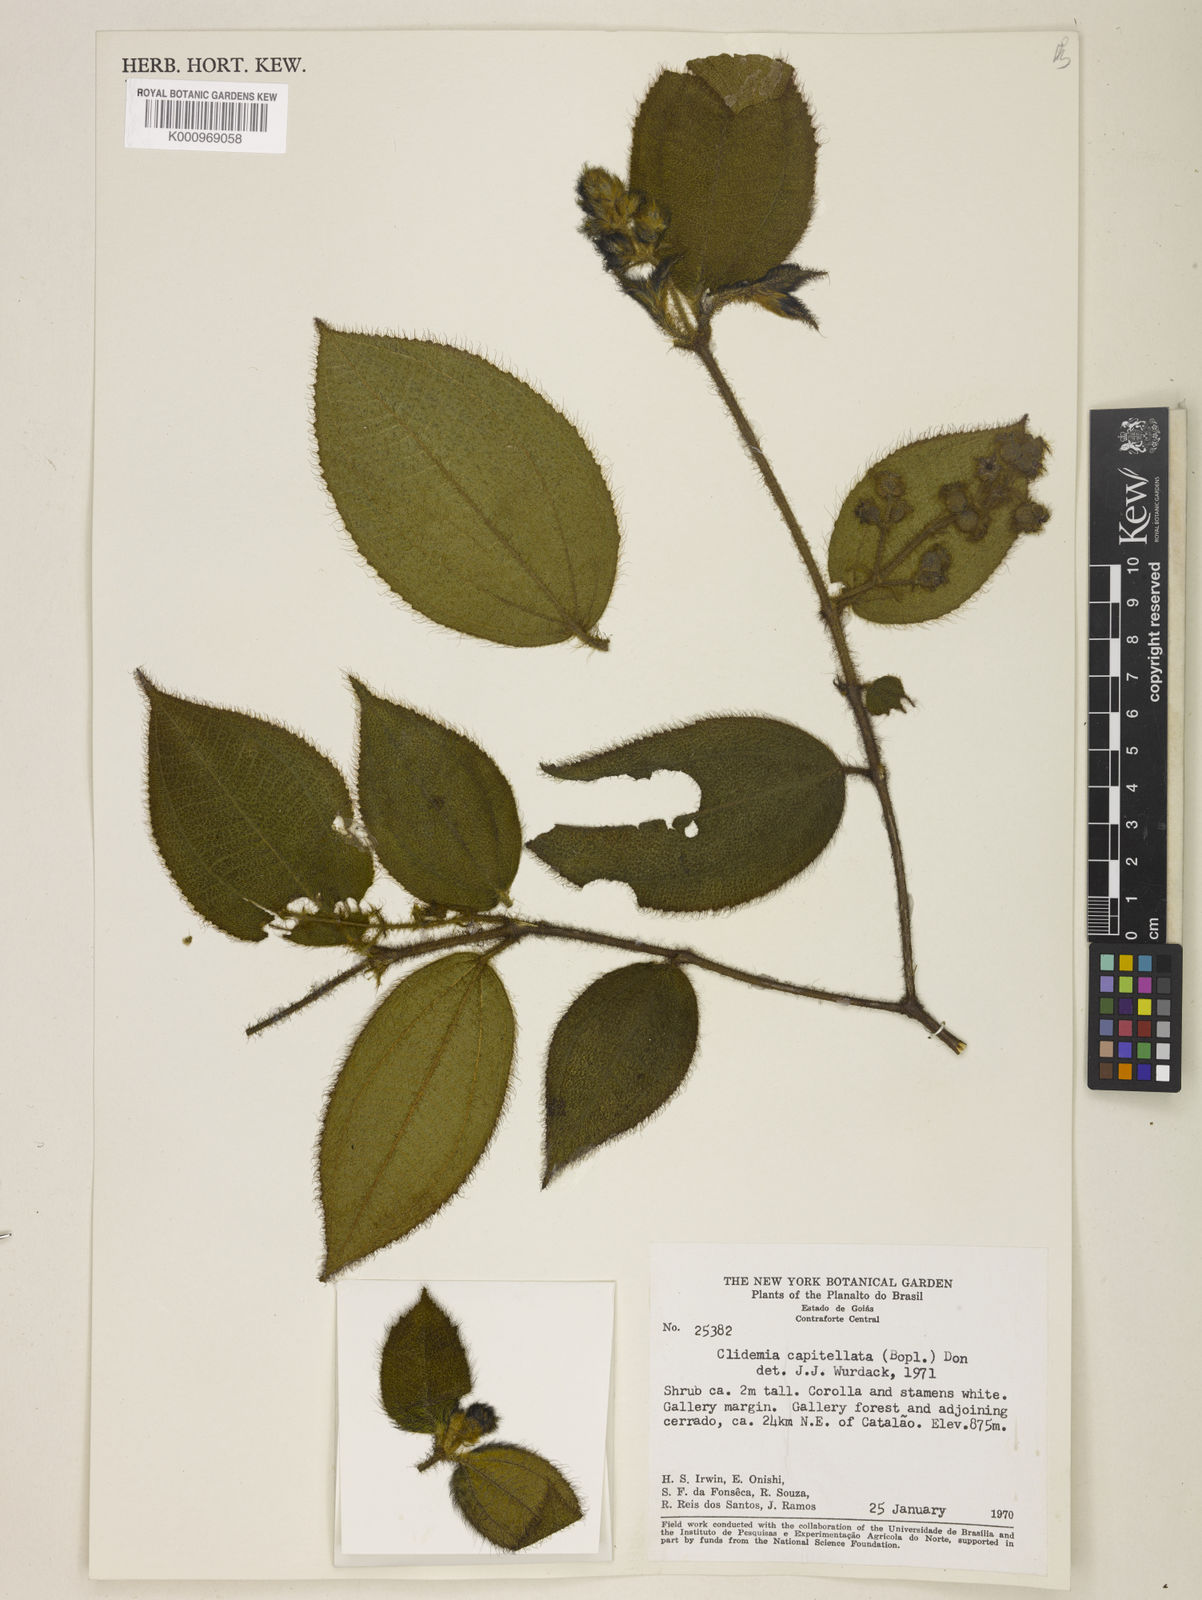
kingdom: Plantae
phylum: Tracheophyta
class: Magnoliopsida
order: Myrtales
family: Melastomataceae
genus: Miconia
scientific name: Miconia dependens
